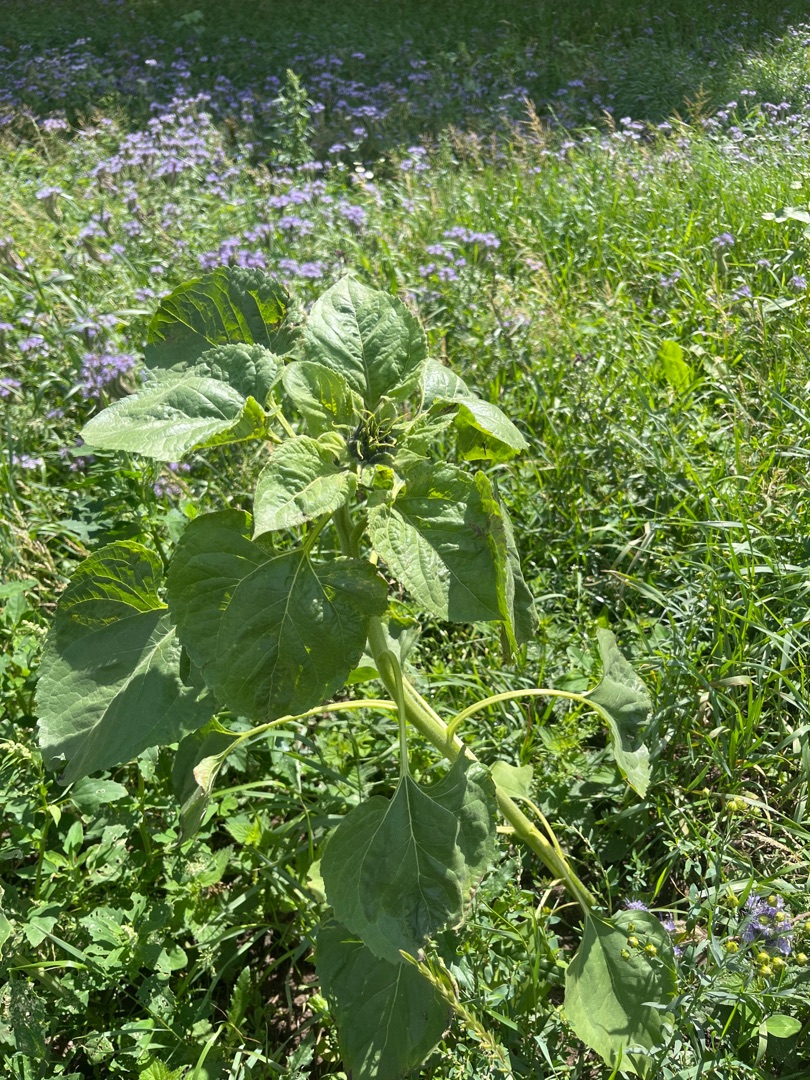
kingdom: Plantae
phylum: Tracheophyta
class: Magnoliopsida
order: Asterales
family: Asteraceae
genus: Helianthus
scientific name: Helianthus annuus
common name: Solsikke
